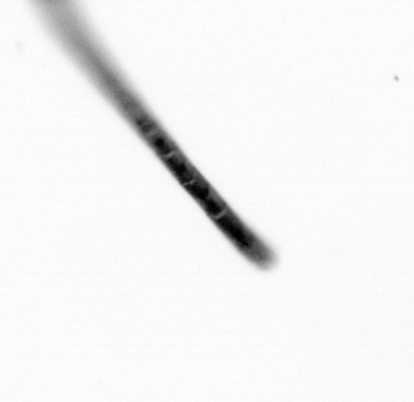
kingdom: Chromista
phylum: Ochrophyta
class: Bacillariophyceae
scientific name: Bacillariophyceae
